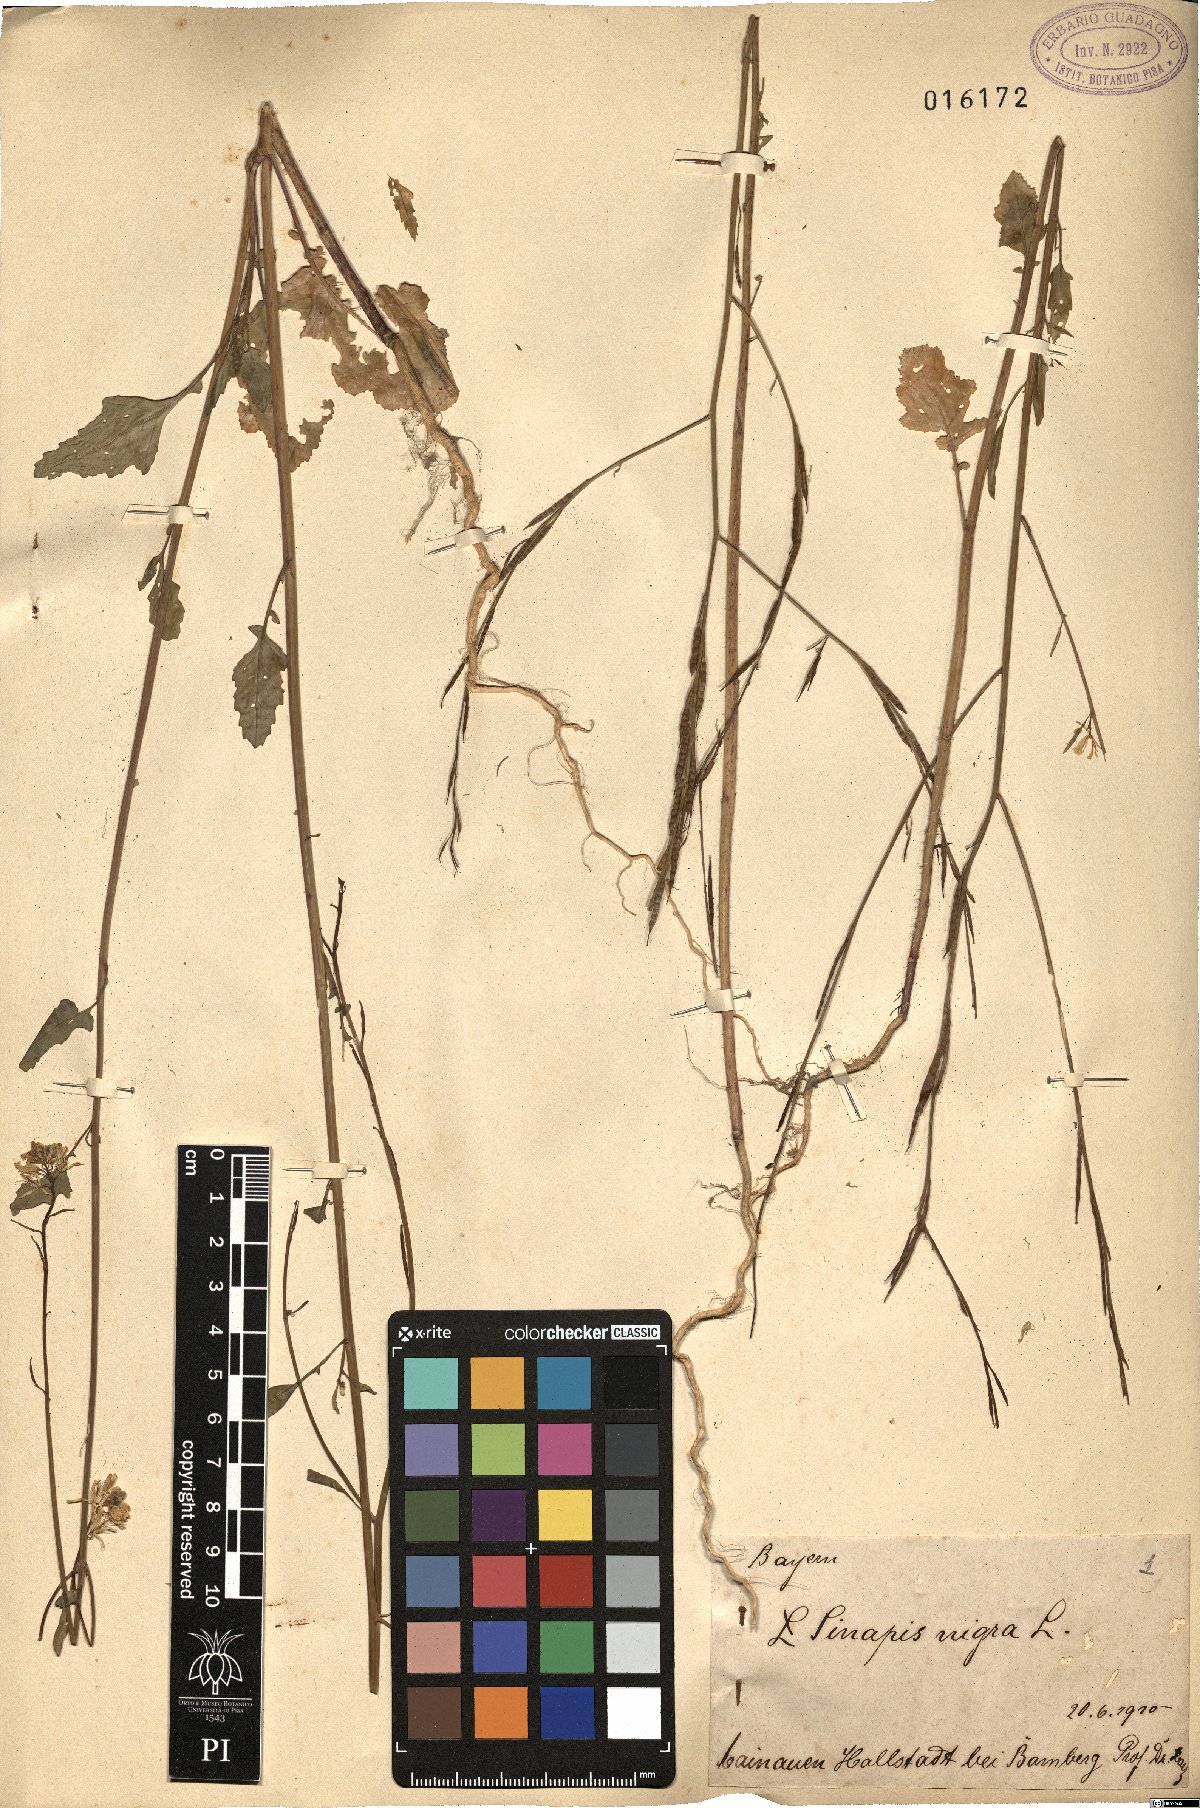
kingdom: Plantae
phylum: Tracheophyta
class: Magnoliopsida
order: Brassicales
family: Brassicaceae
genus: Brassica
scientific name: Brassica nigra
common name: Black mustard
